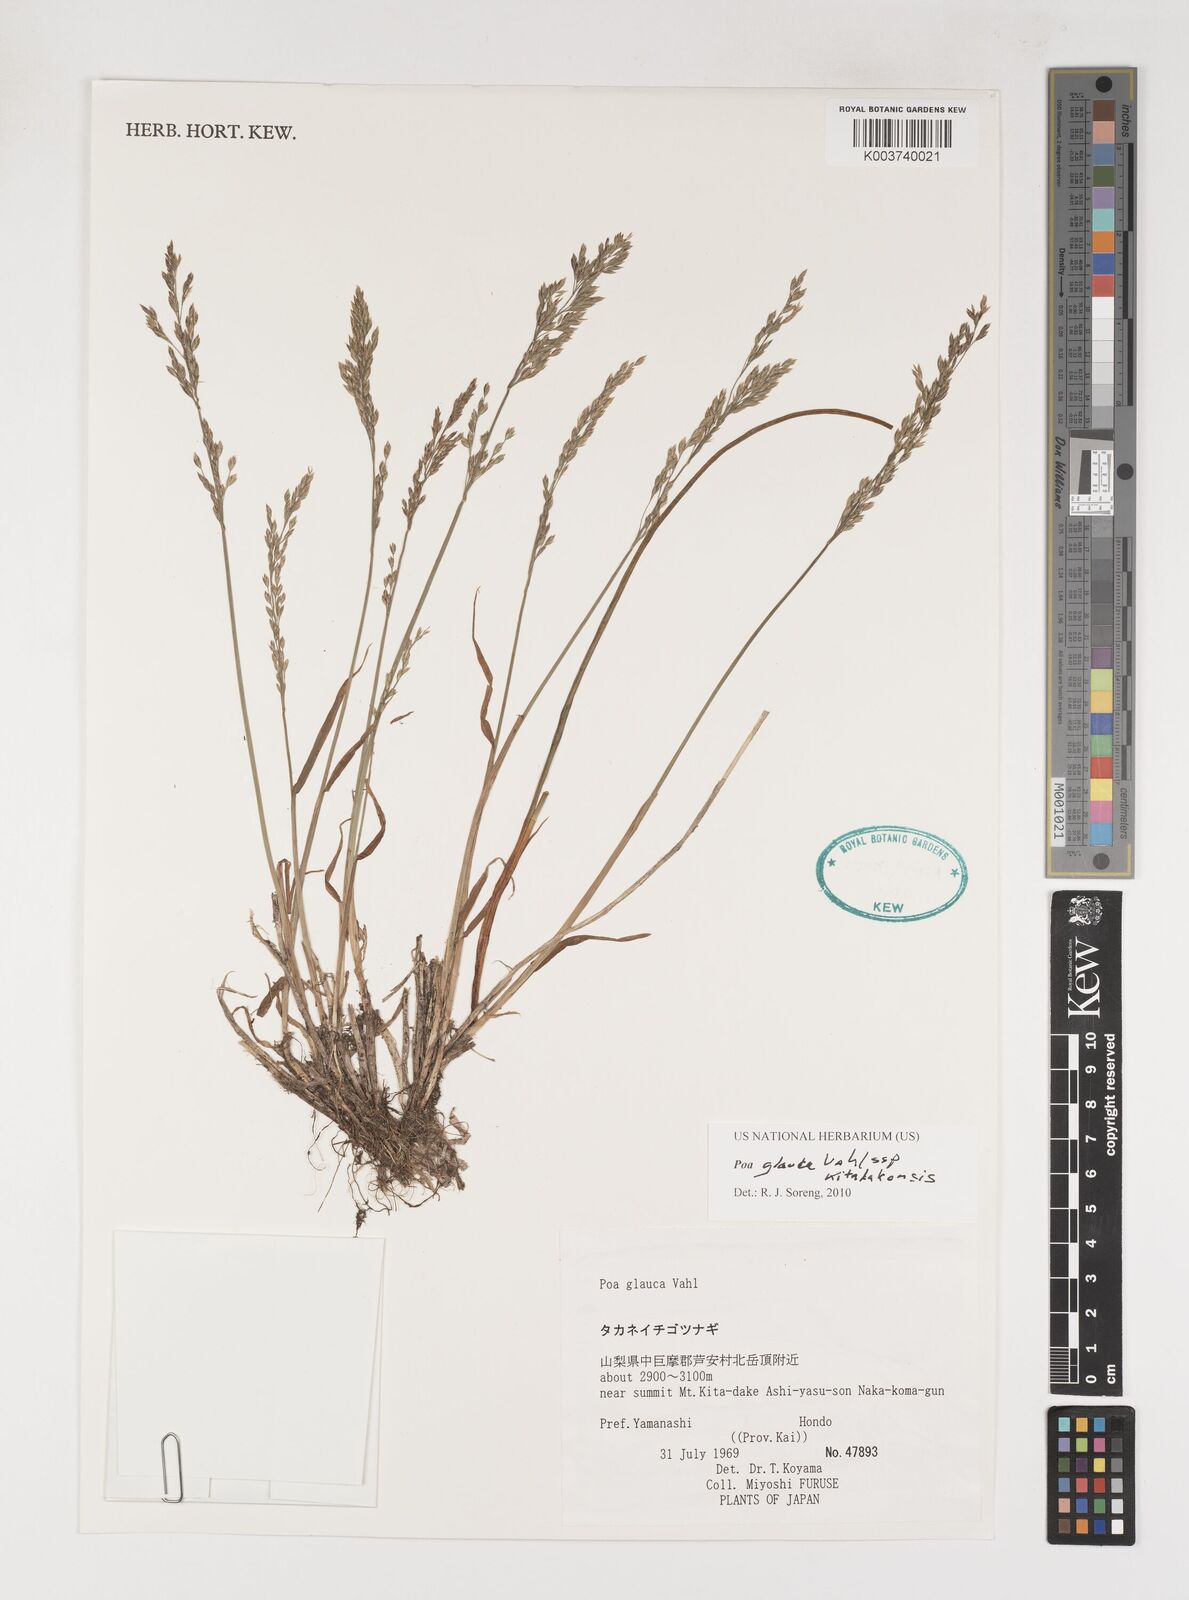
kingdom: Plantae
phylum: Tracheophyta
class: Liliopsida
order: Poales
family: Poaceae
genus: Poa
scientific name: Poa glauca
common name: Glaucous bluegrass
